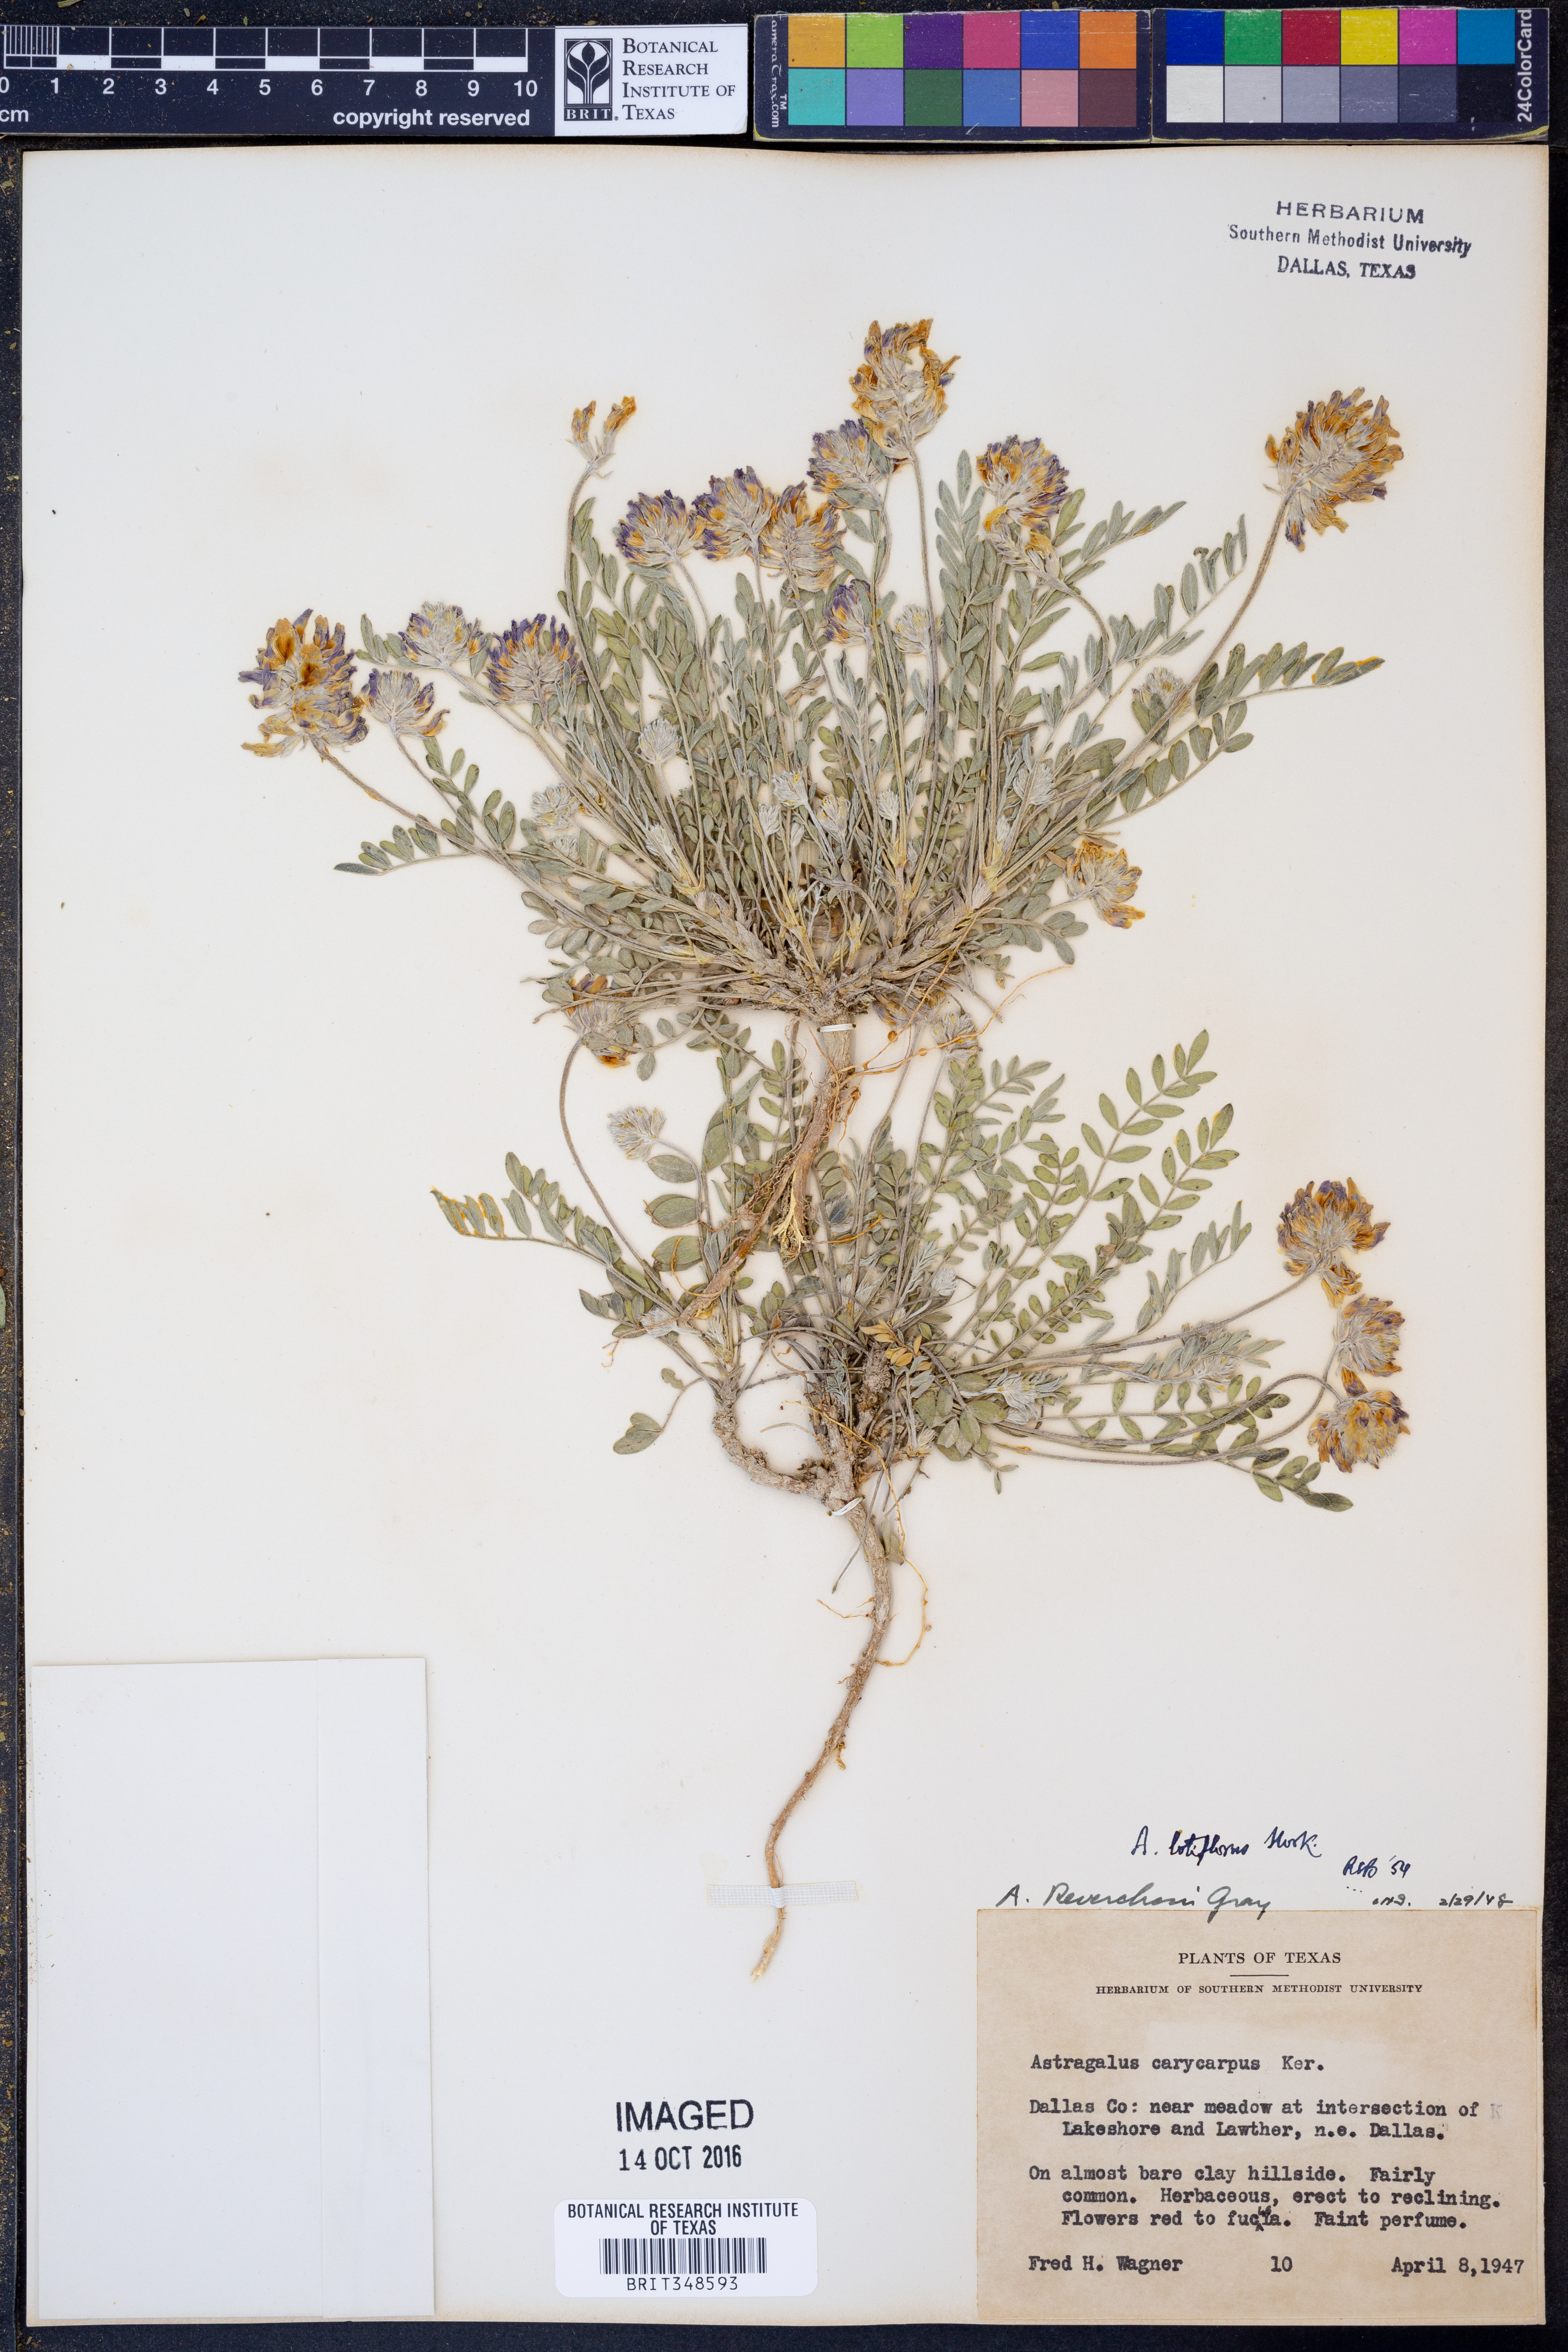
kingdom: Plantae
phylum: Tracheophyta
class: Magnoliopsida
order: Fabales
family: Fabaceae
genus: Astragalus
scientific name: Astragalus lotiflorus
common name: Lotus milk-vetch
